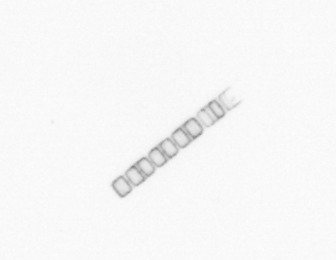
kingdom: Chromista
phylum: Ochrophyta
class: Bacillariophyceae
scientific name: Bacillariophyceae
